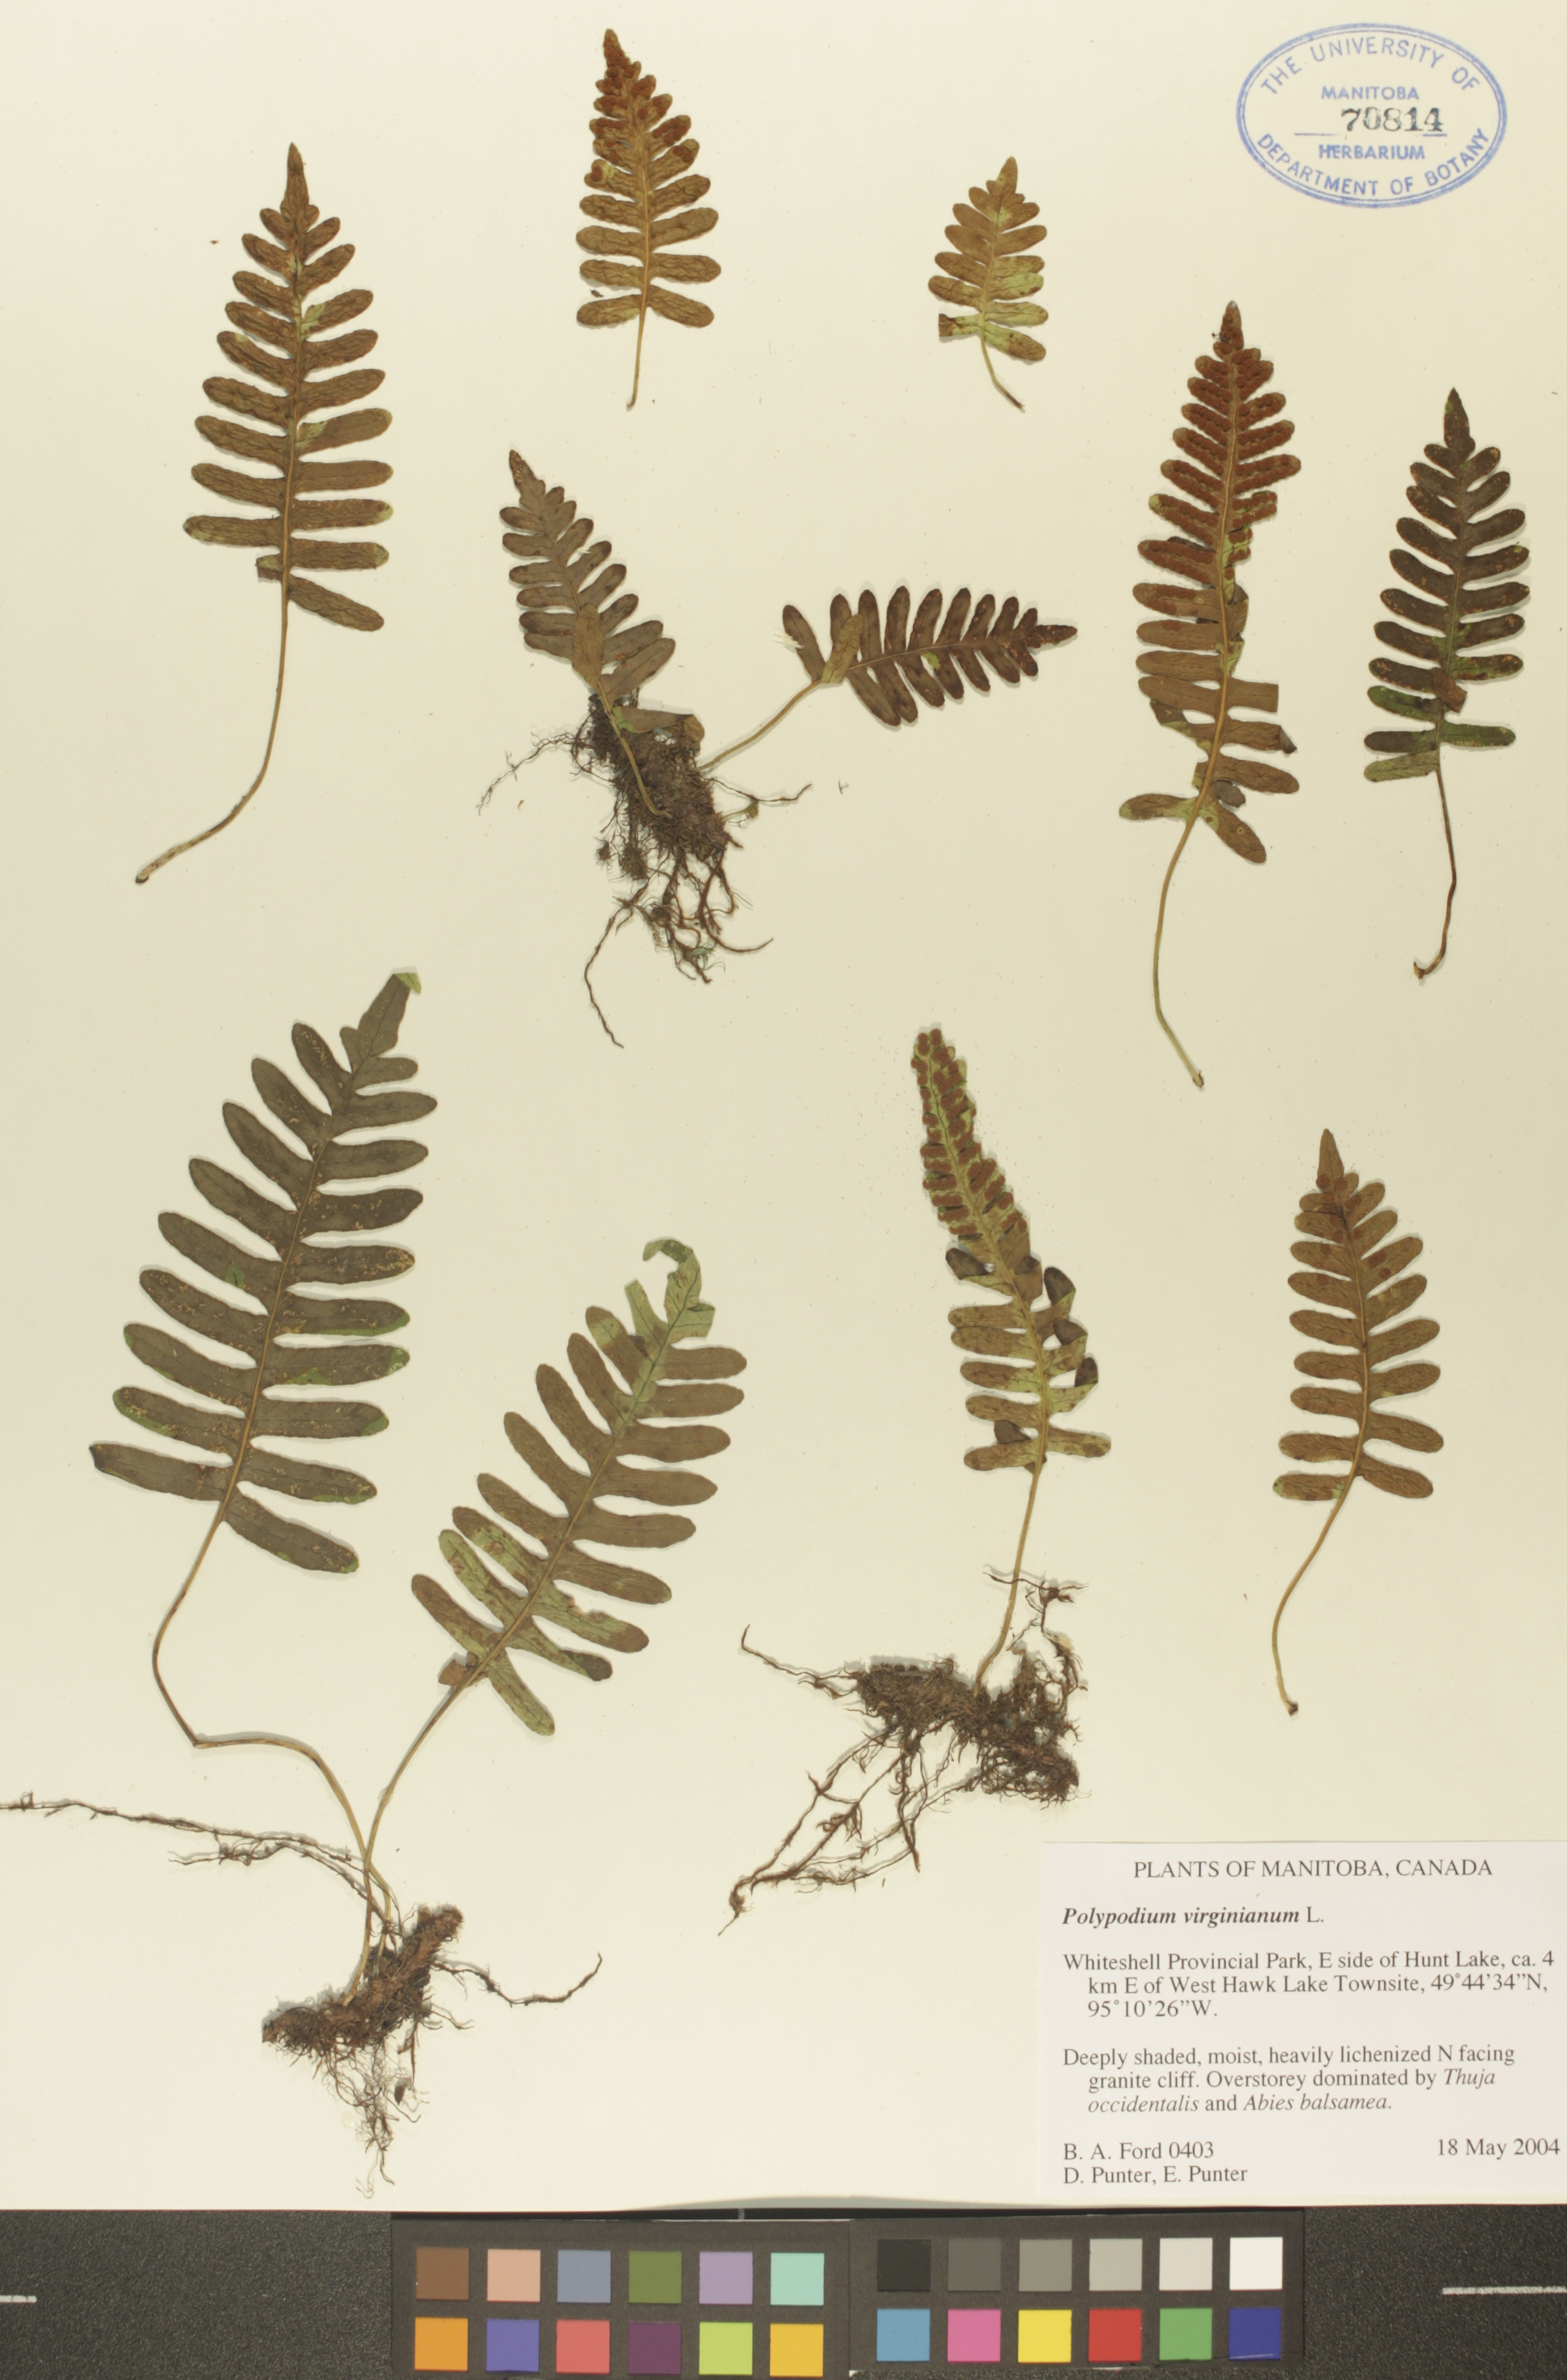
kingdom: Plantae
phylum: Tracheophyta
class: Polypodiopsida
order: Polypodiales
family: Polypodiaceae
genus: Polypodium
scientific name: Polypodium virginianum
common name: American wall fern
